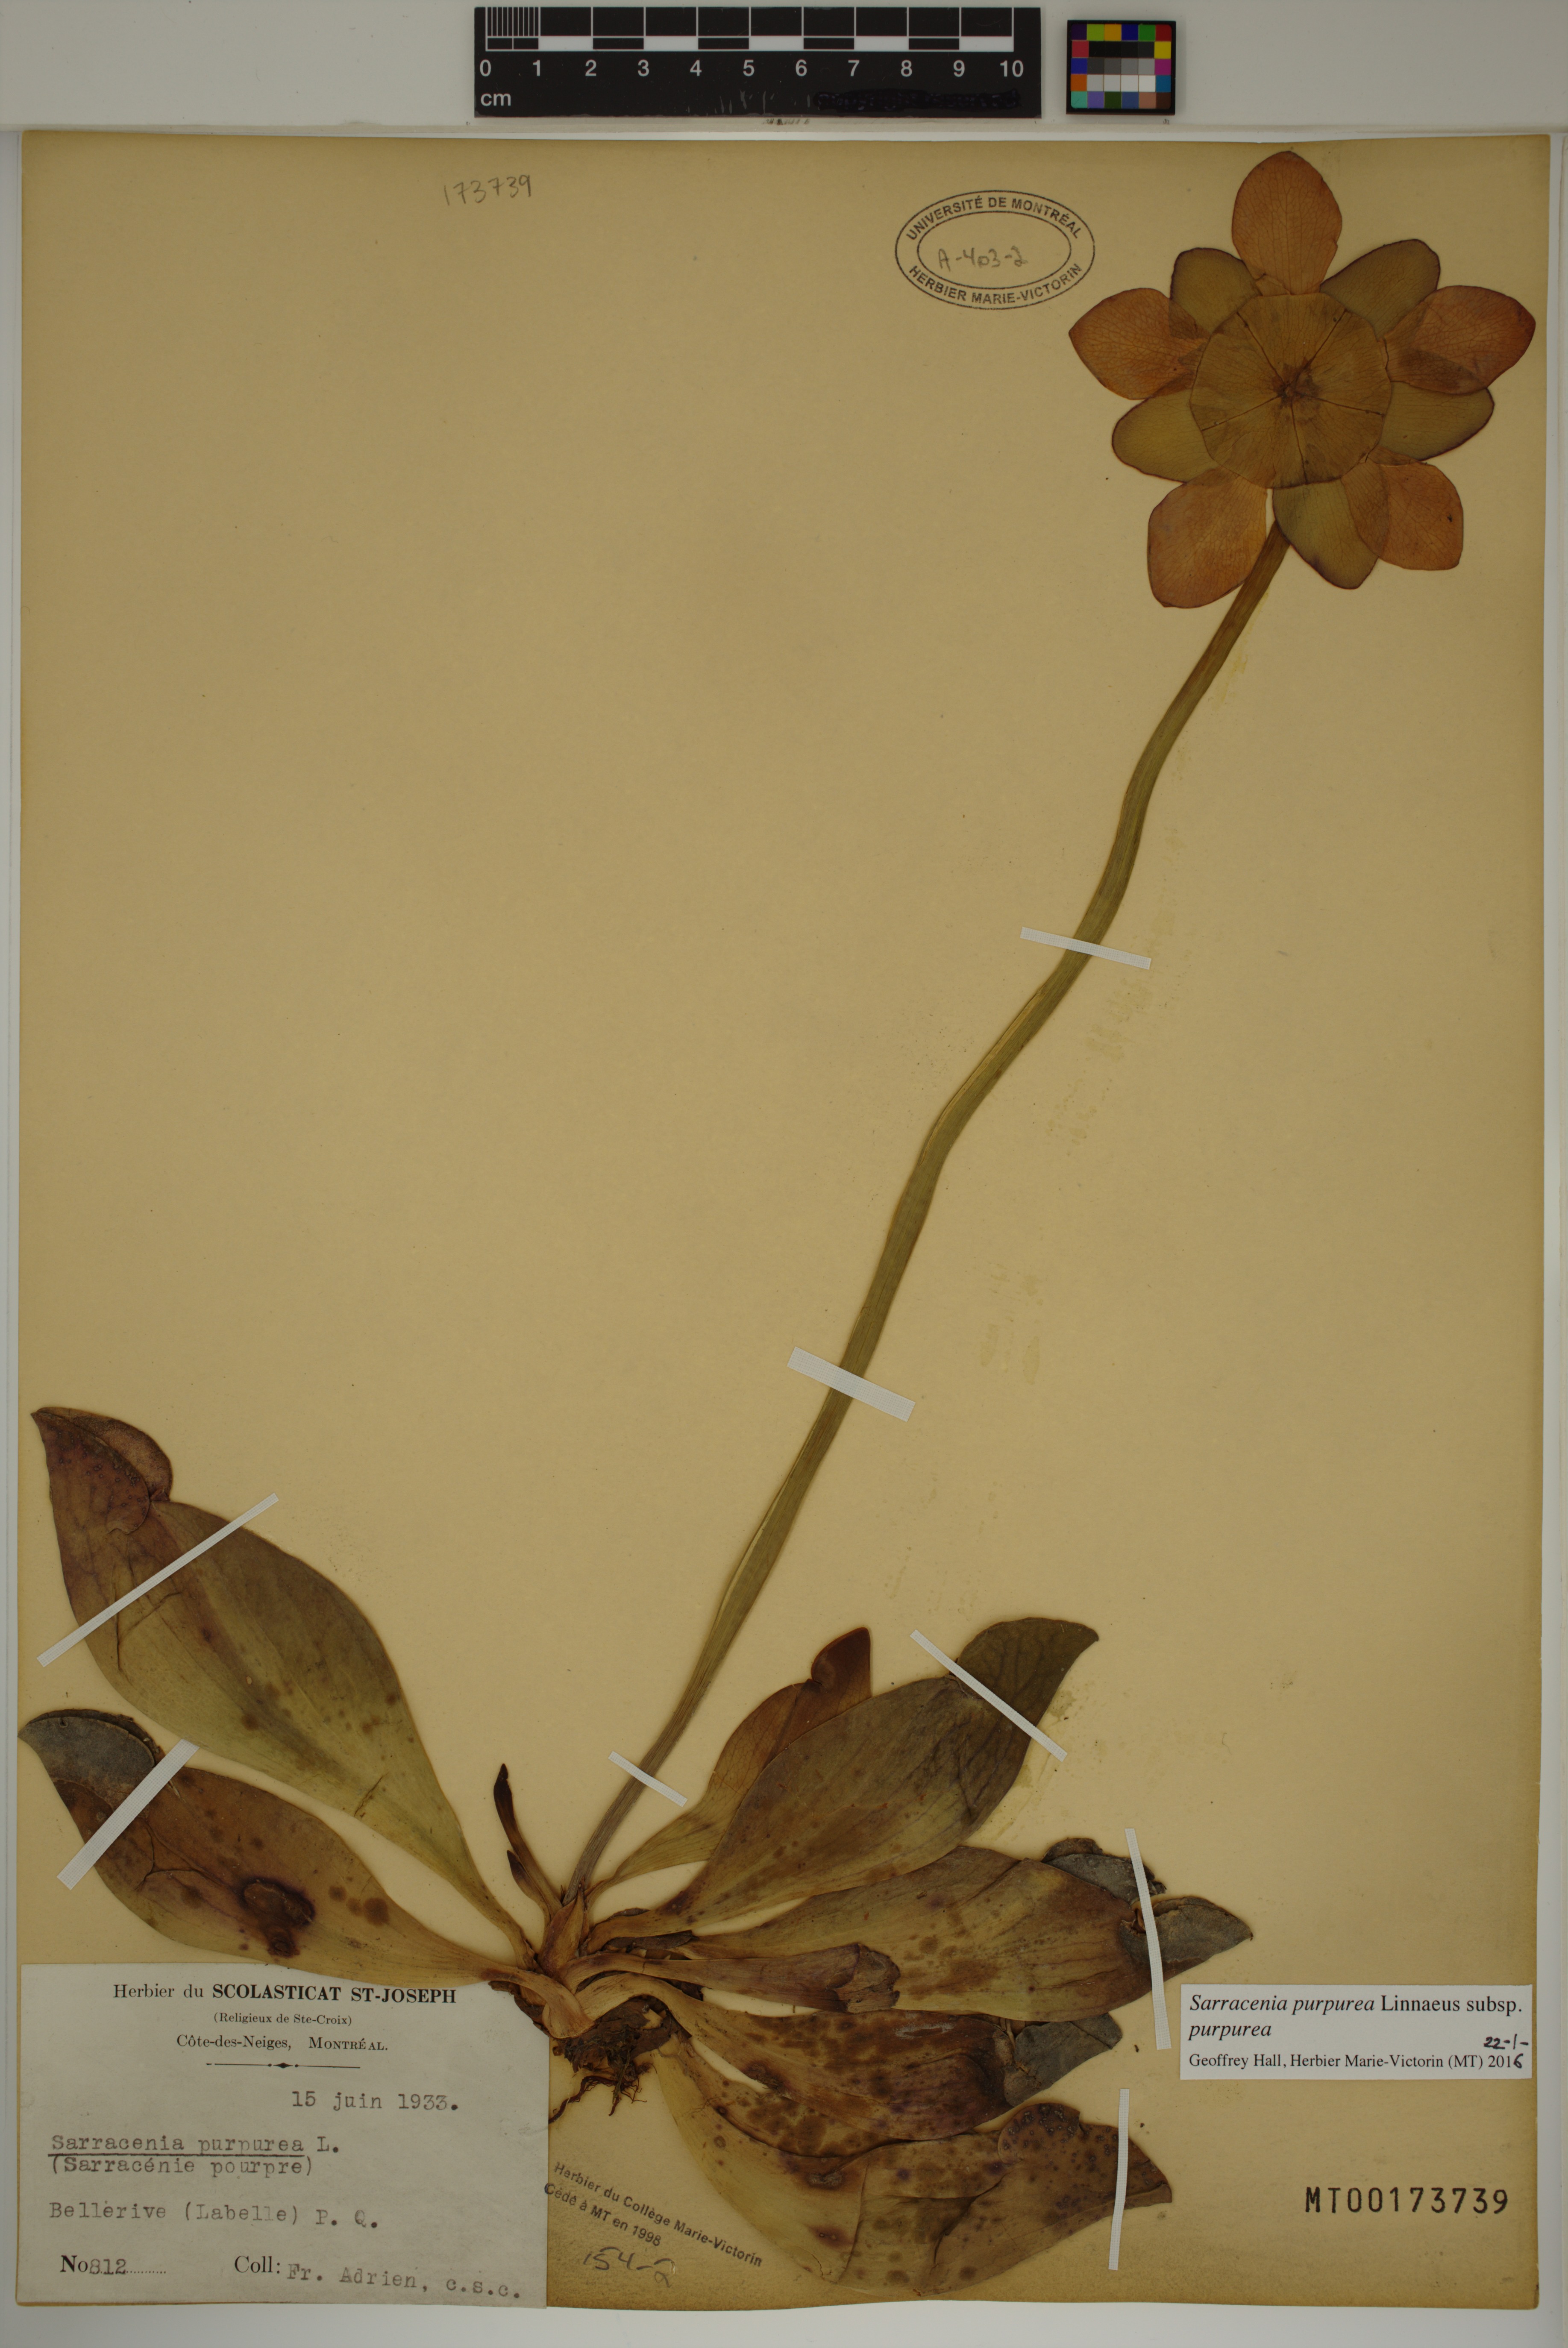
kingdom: Plantae
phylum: Tracheophyta
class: Magnoliopsida
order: Ericales
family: Sarraceniaceae
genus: Sarracenia
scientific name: Sarracenia purpurea
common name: Pitcherplant
